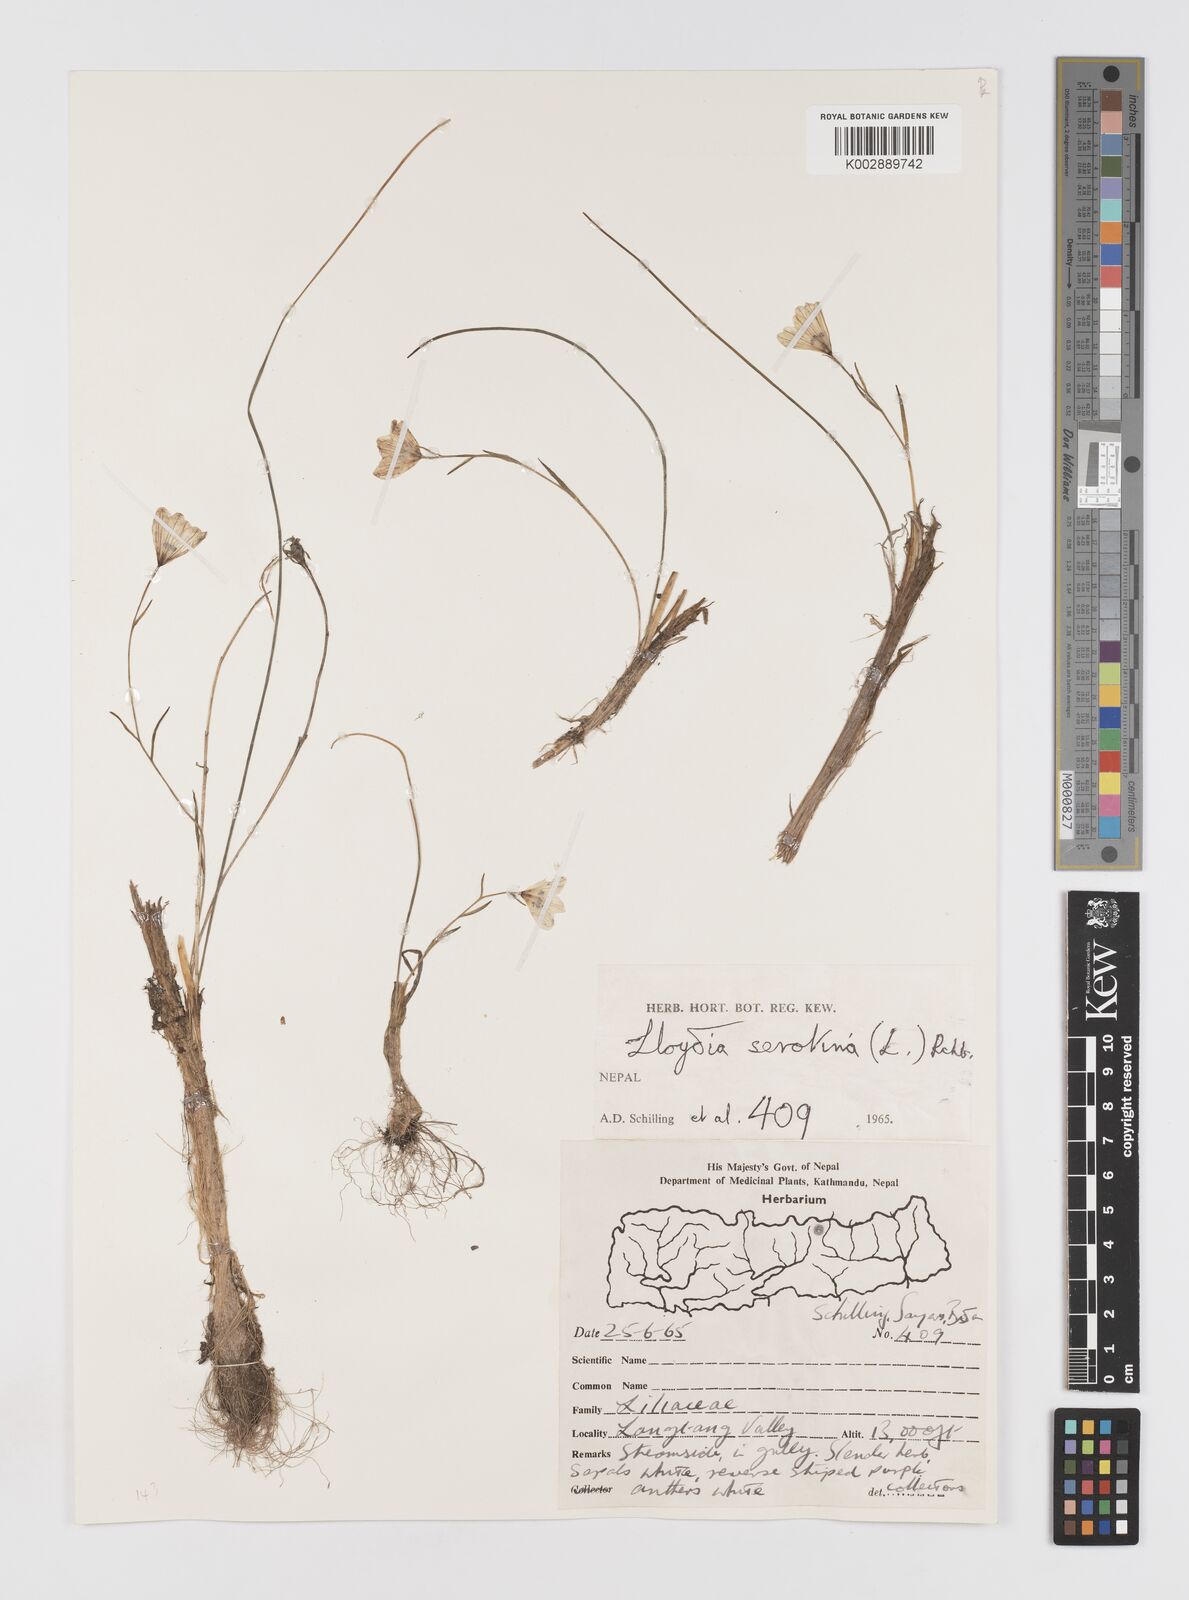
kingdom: Plantae
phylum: Tracheophyta
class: Liliopsida
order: Liliales
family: Liliaceae
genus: Gagea
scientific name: Gagea serotina
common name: Snowdon lily
